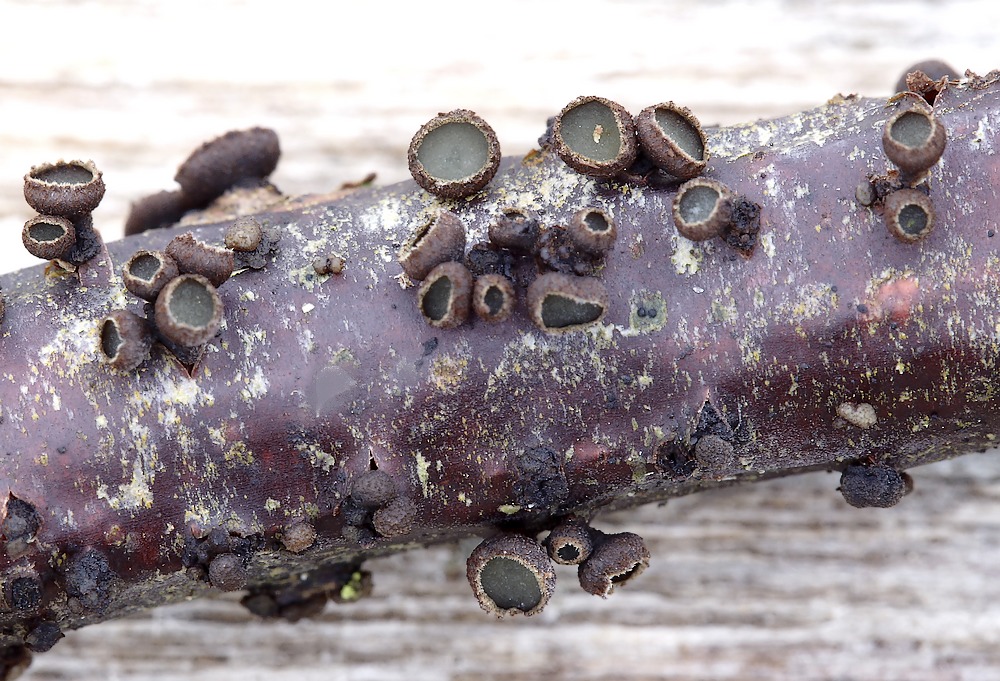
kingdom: Fungi
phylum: Ascomycota
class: Leotiomycetes
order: Helotiales
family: Godroniaceae
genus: Godronia
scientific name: Godronia ribis
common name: ribs-urneskive
